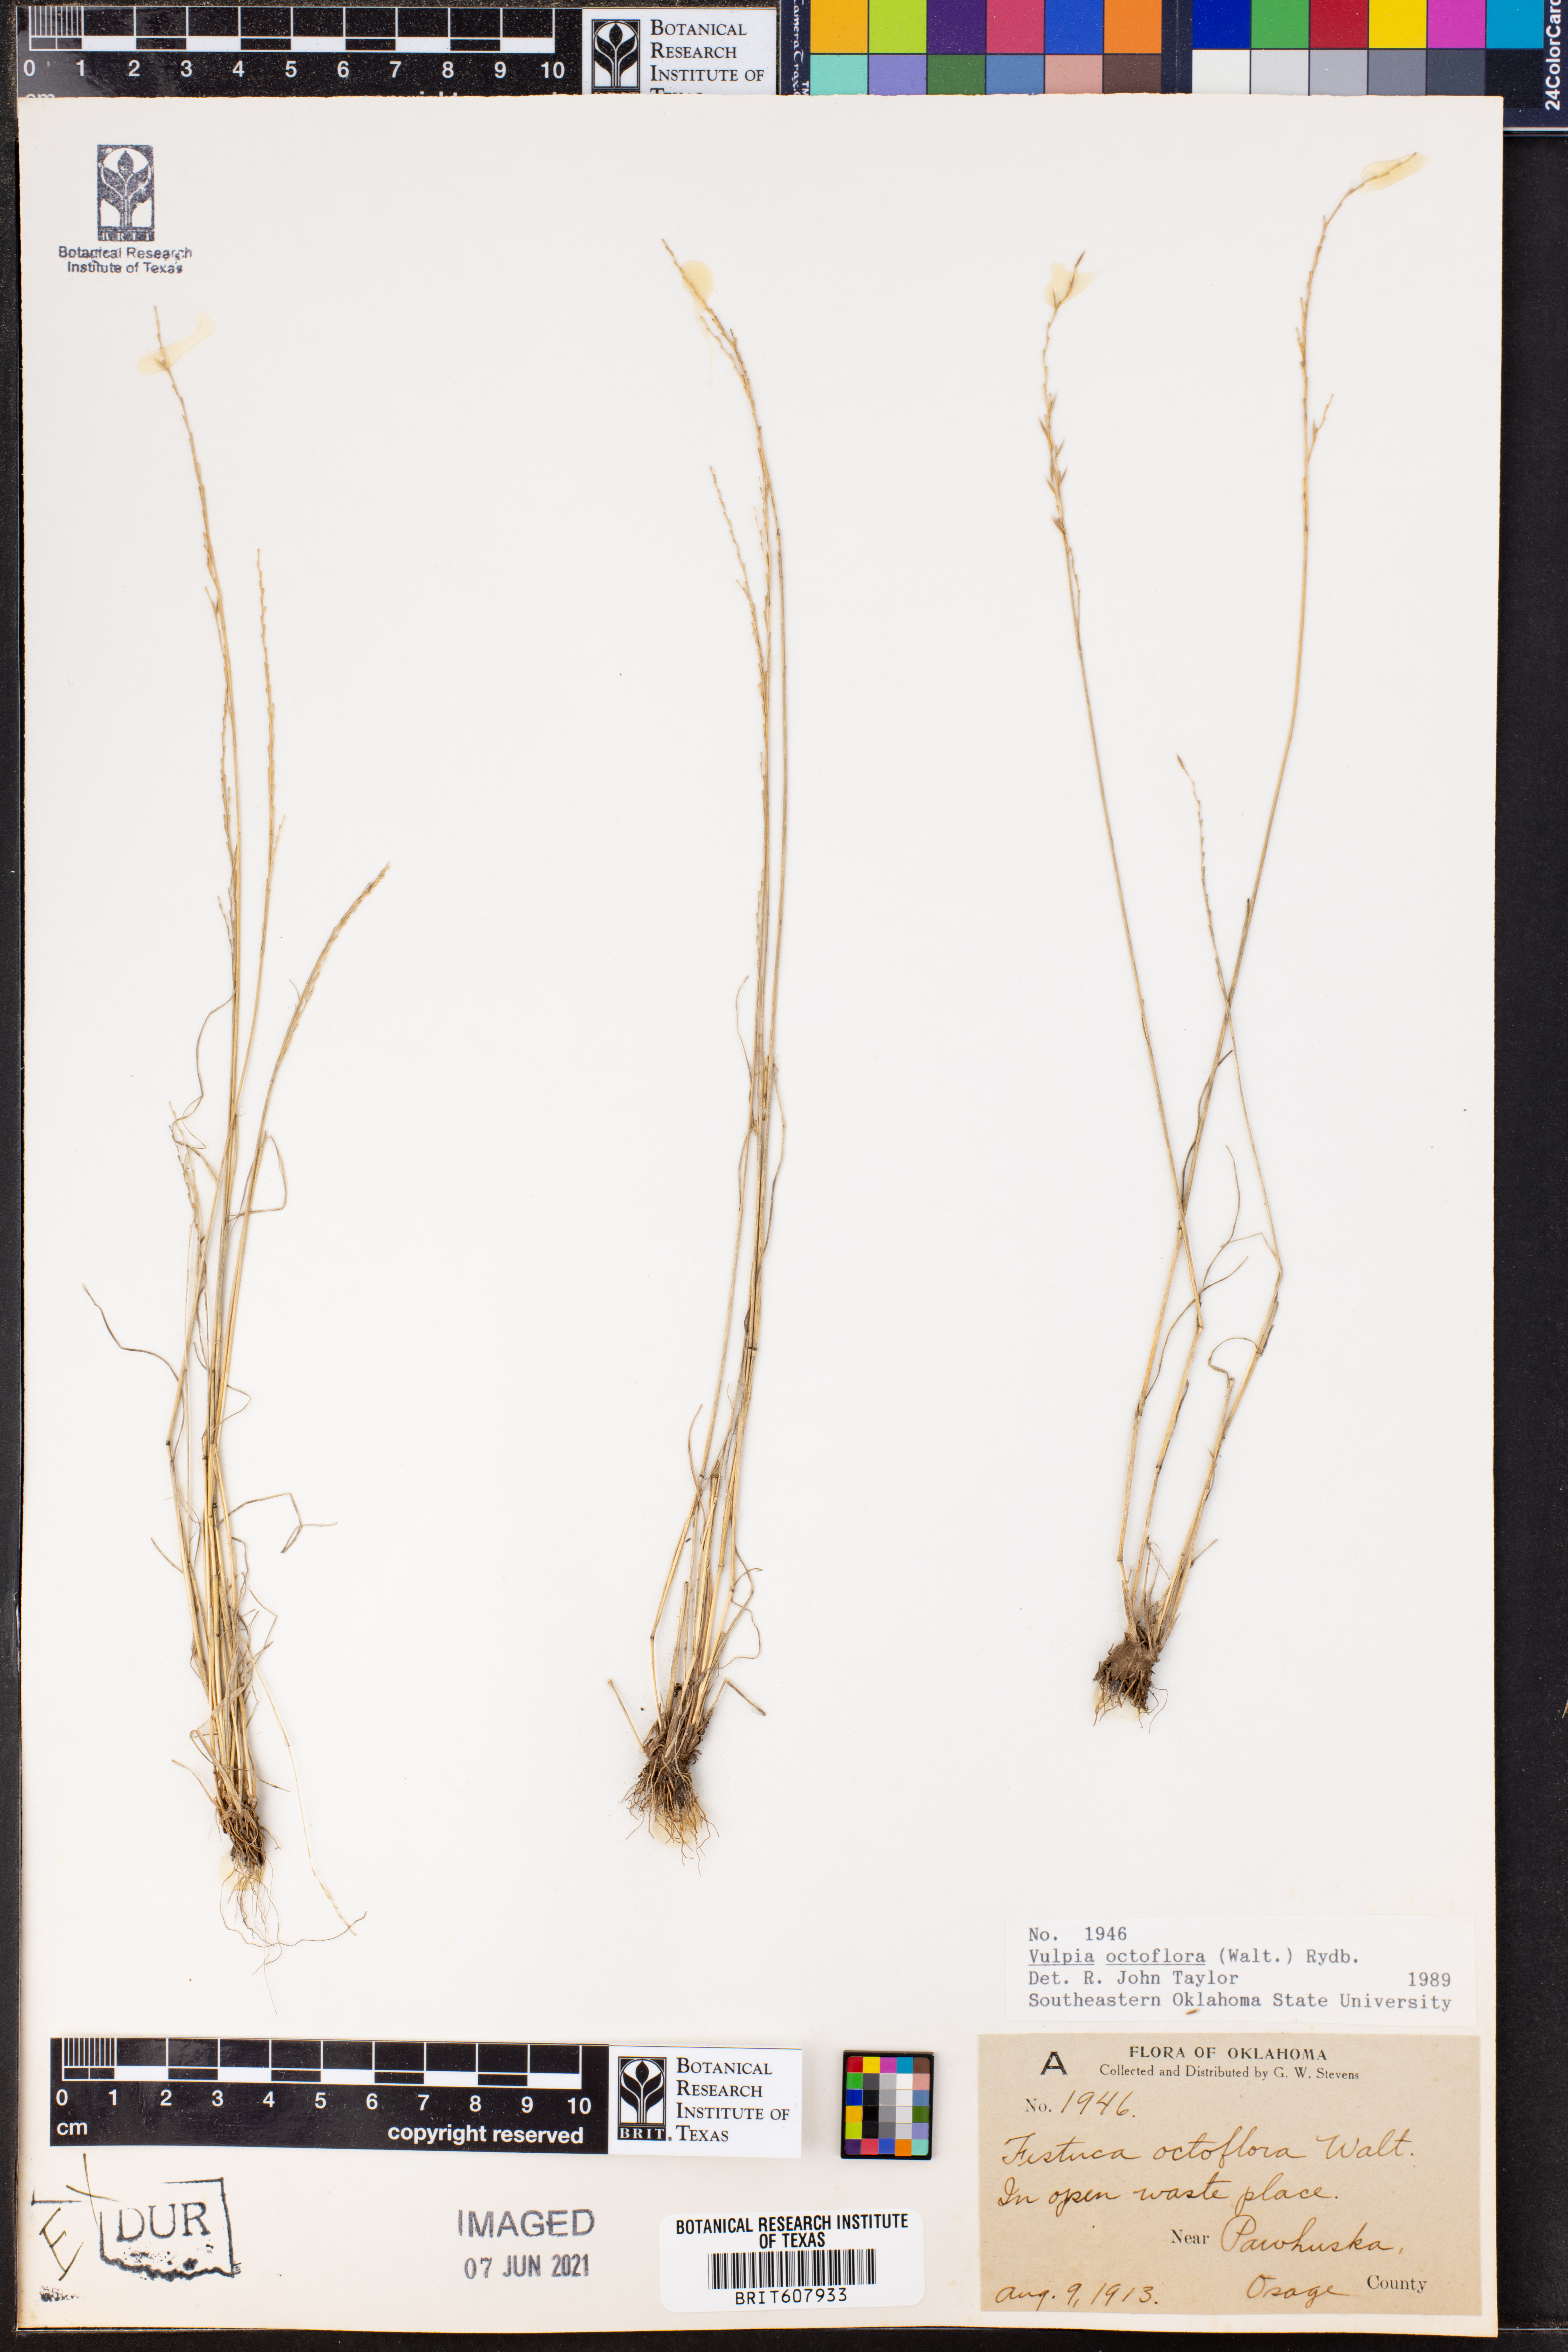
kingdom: Plantae
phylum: Tracheophyta
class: Liliopsida
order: Poales
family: Poaceae
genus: Festuca
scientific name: Festuca octoflora
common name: Sixweeks grass
